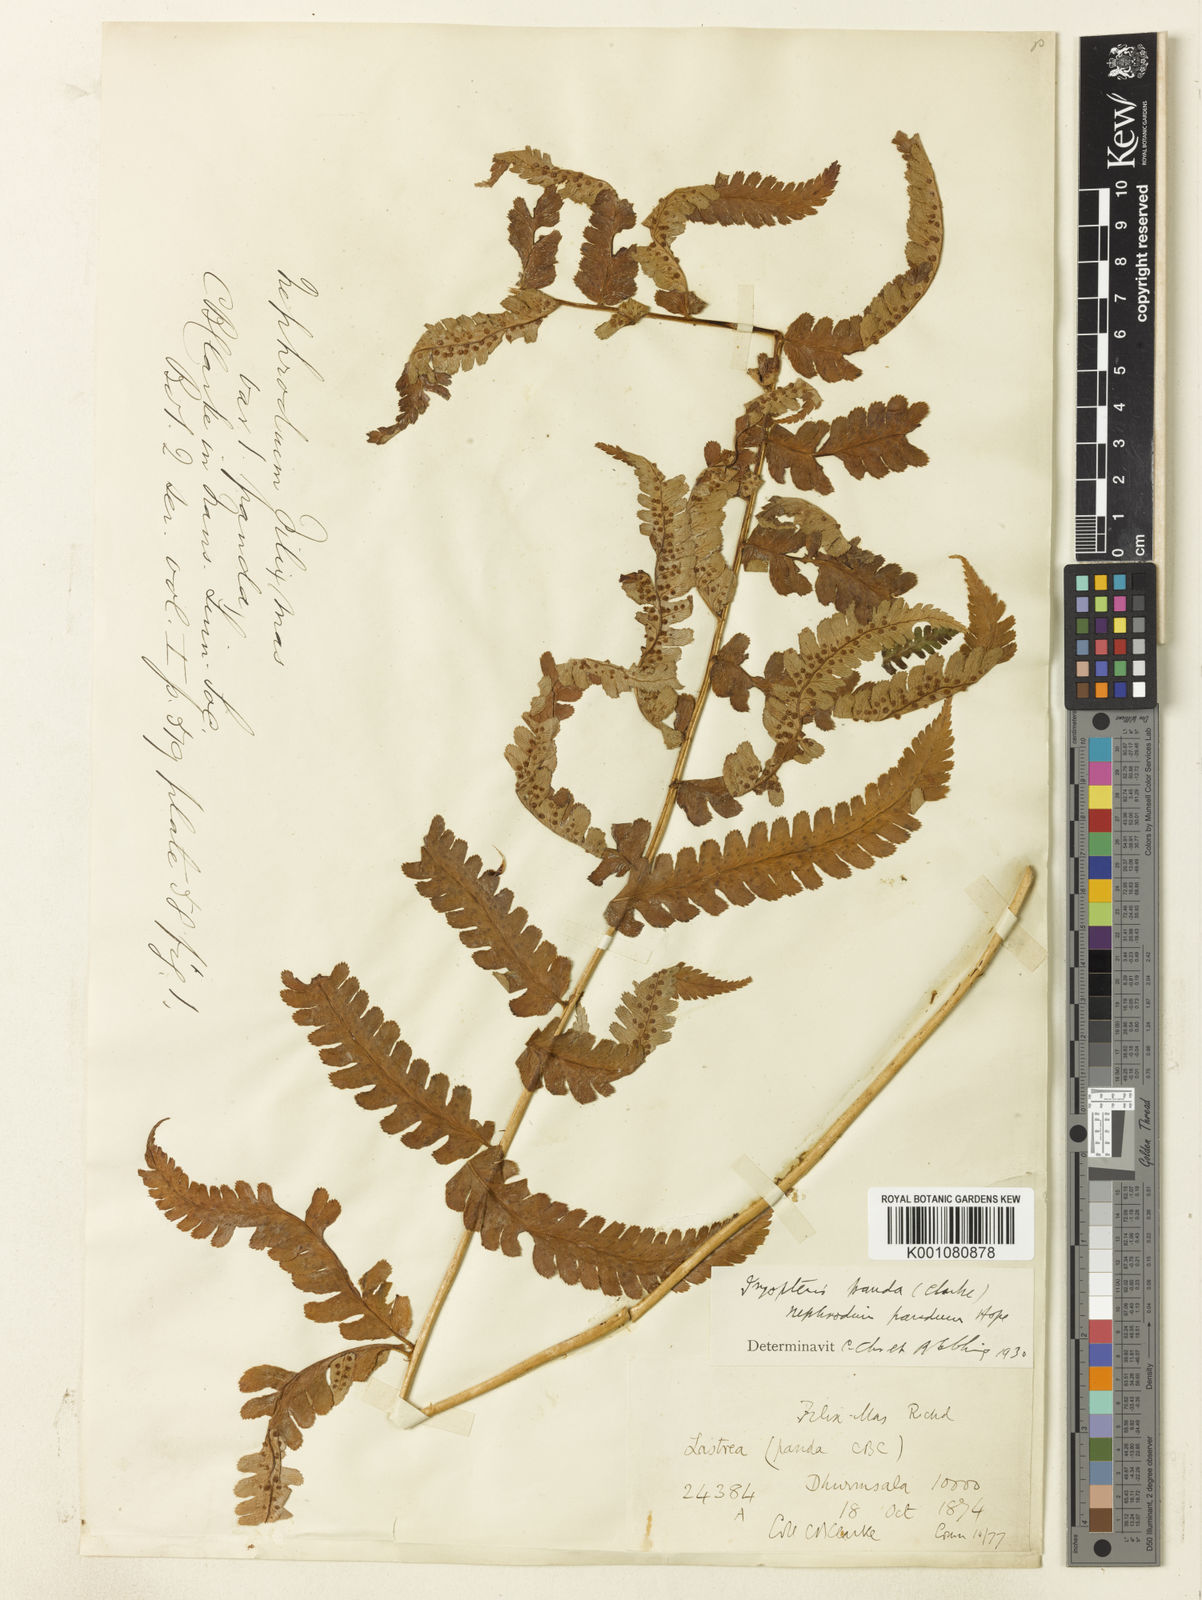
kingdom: Plantae
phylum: Tracheophyta
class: Polypodiopsida
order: Polypodiales
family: Dryopteridaceae
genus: Dryopteris
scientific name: Dryopteris panda
